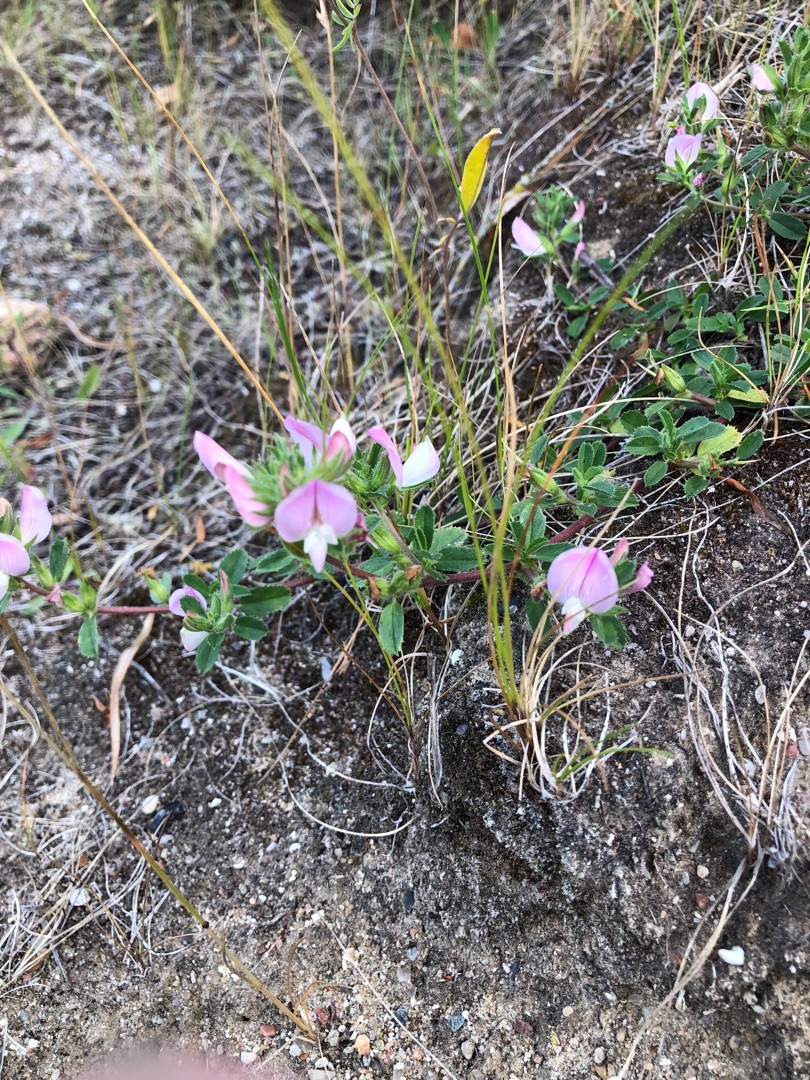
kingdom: Plantae
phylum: Tracheophyta
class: Magnoliopsida
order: Fabales
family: Fabaceae
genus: Ononis
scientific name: Ononis spinosa
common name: Mark-krageklo
